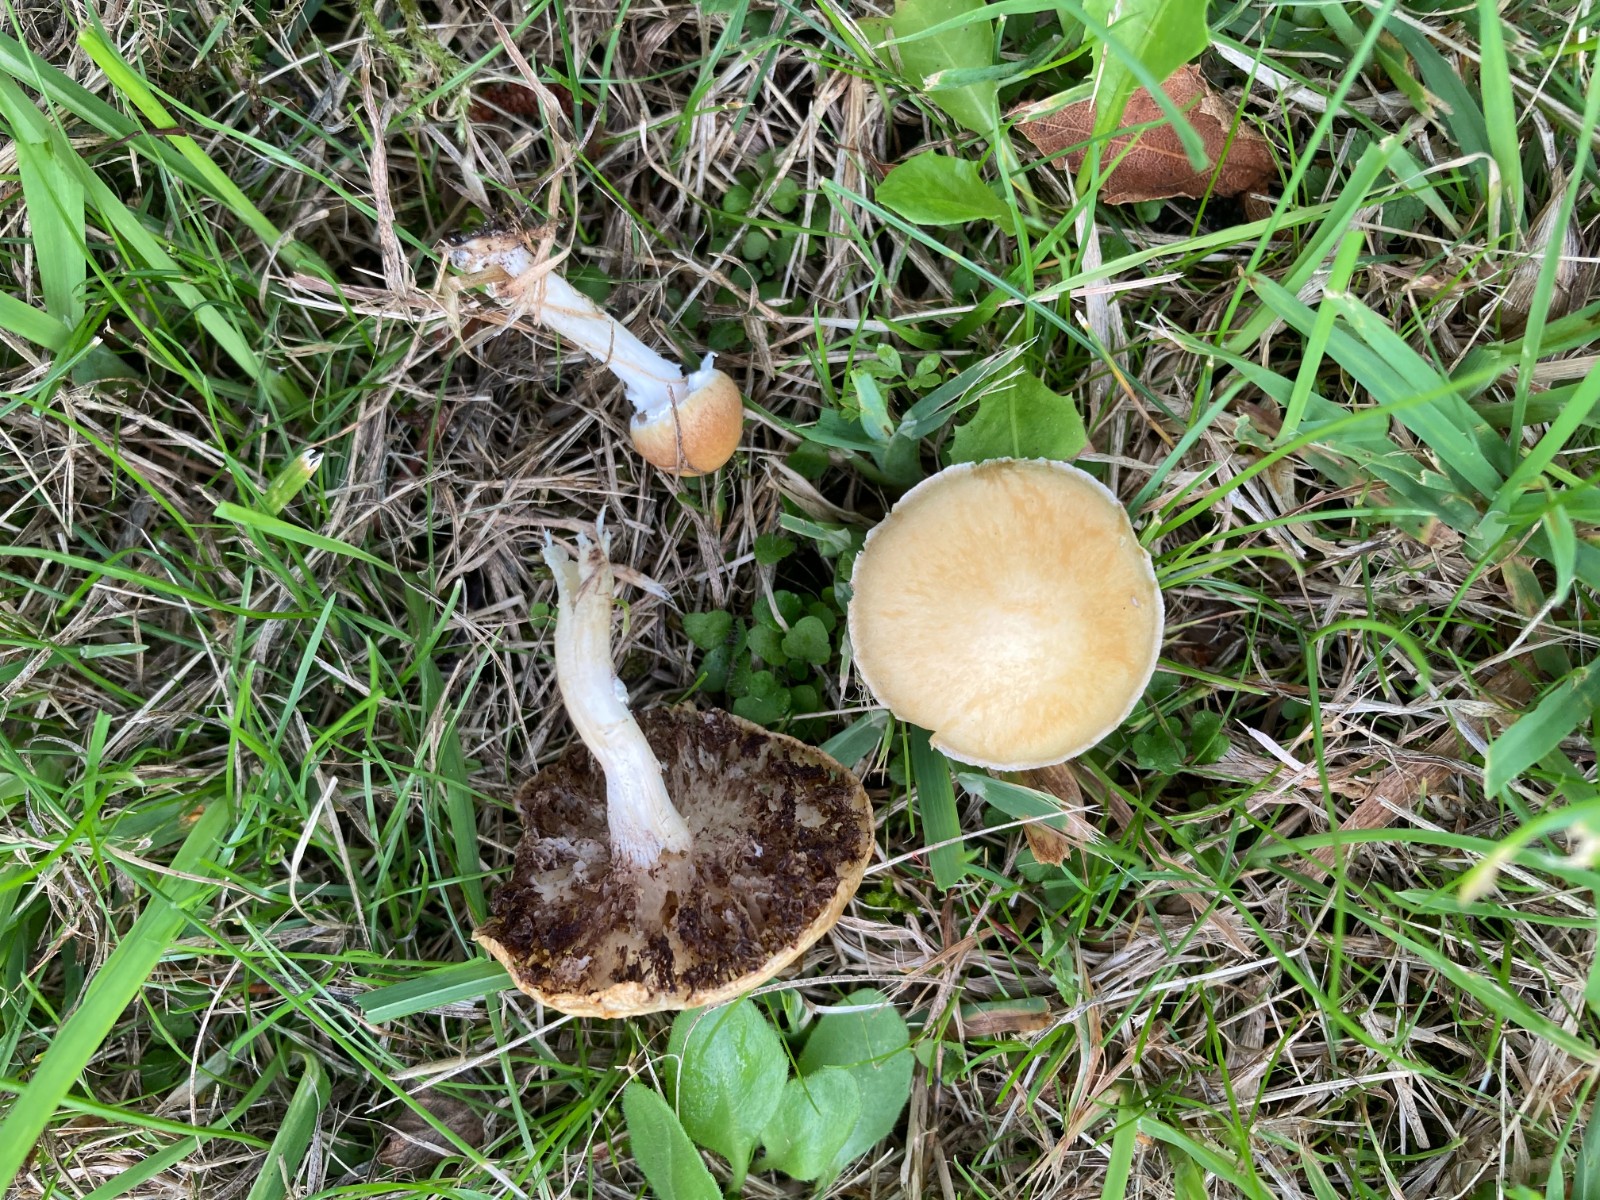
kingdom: Fungi
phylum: Basidiomycota
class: Agaricomycetes
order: Agaricales
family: Hymenogastraceae
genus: Psilocybe
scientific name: Psilocybe coronilla
